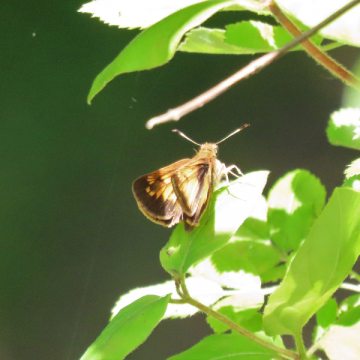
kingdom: Animalia
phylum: Arthropoda
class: Insecta
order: Lepidoptera
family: Hesperiidae
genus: Lon
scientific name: Lon hobomok
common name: Hobomok Skipper
